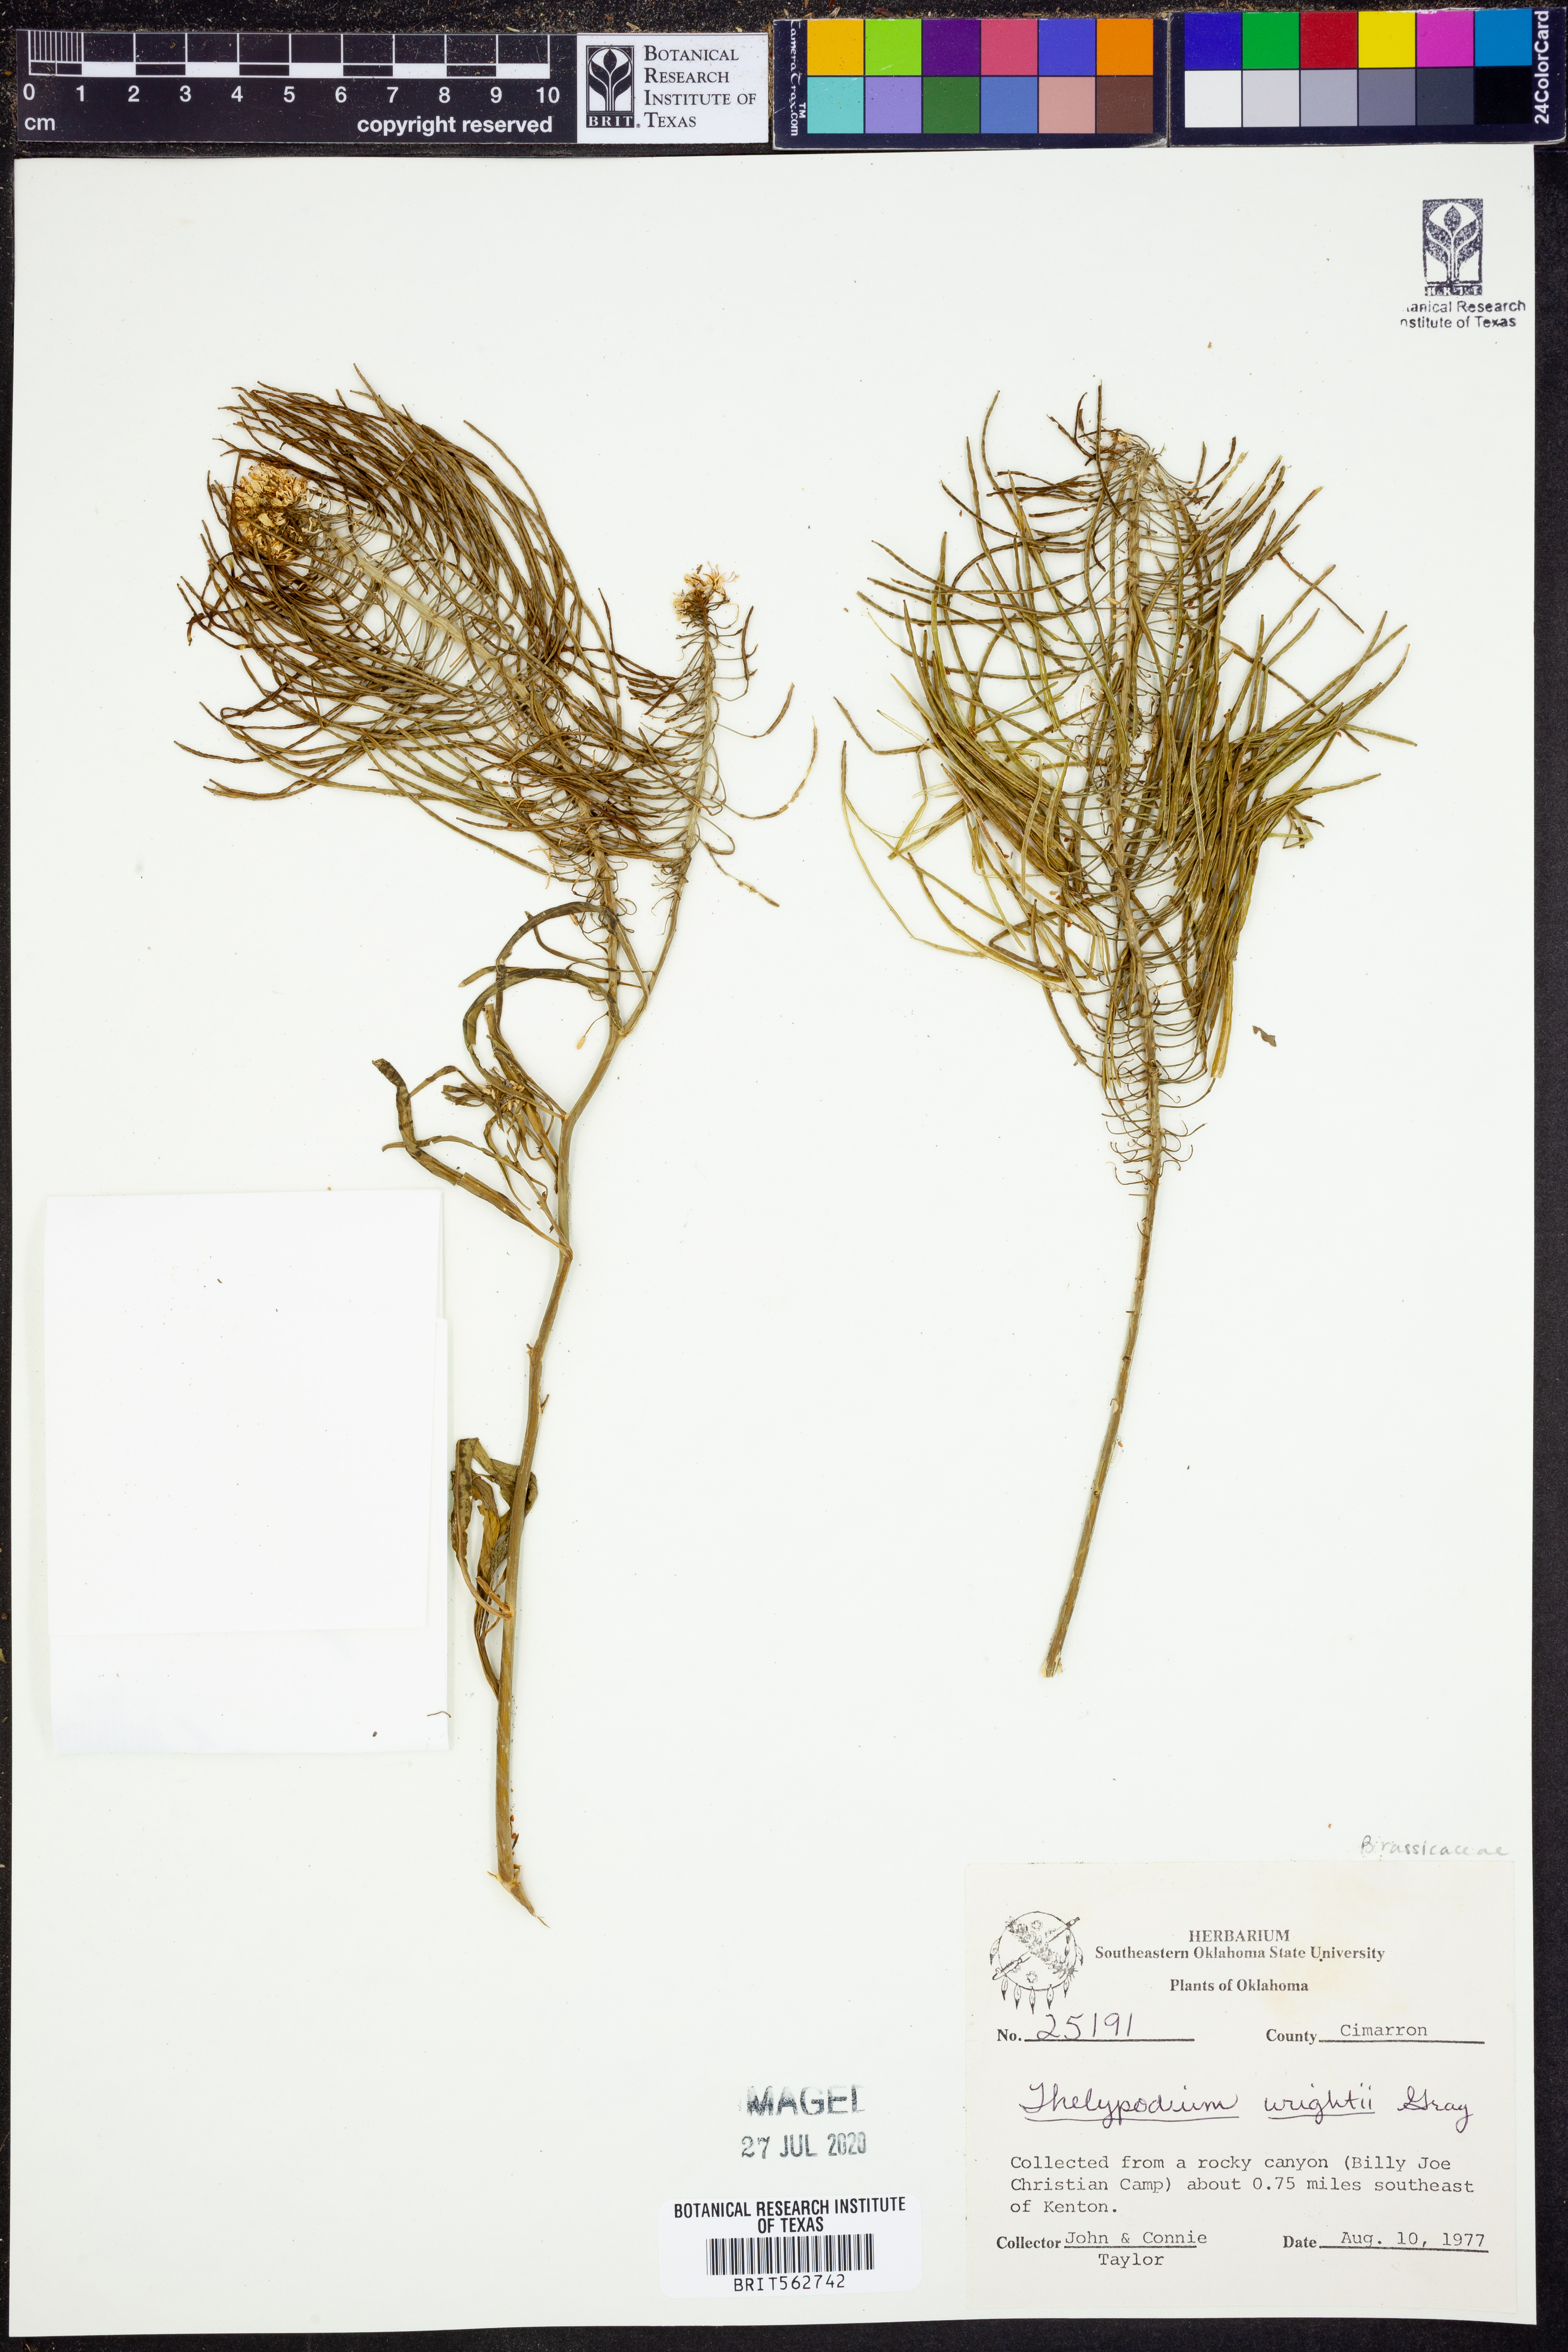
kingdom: Plantae
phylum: Tracheophyta
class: Magnoliopsida
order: Brassicales
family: Brassicaceae
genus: Thelypodium
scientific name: Thelypodium wrightii
